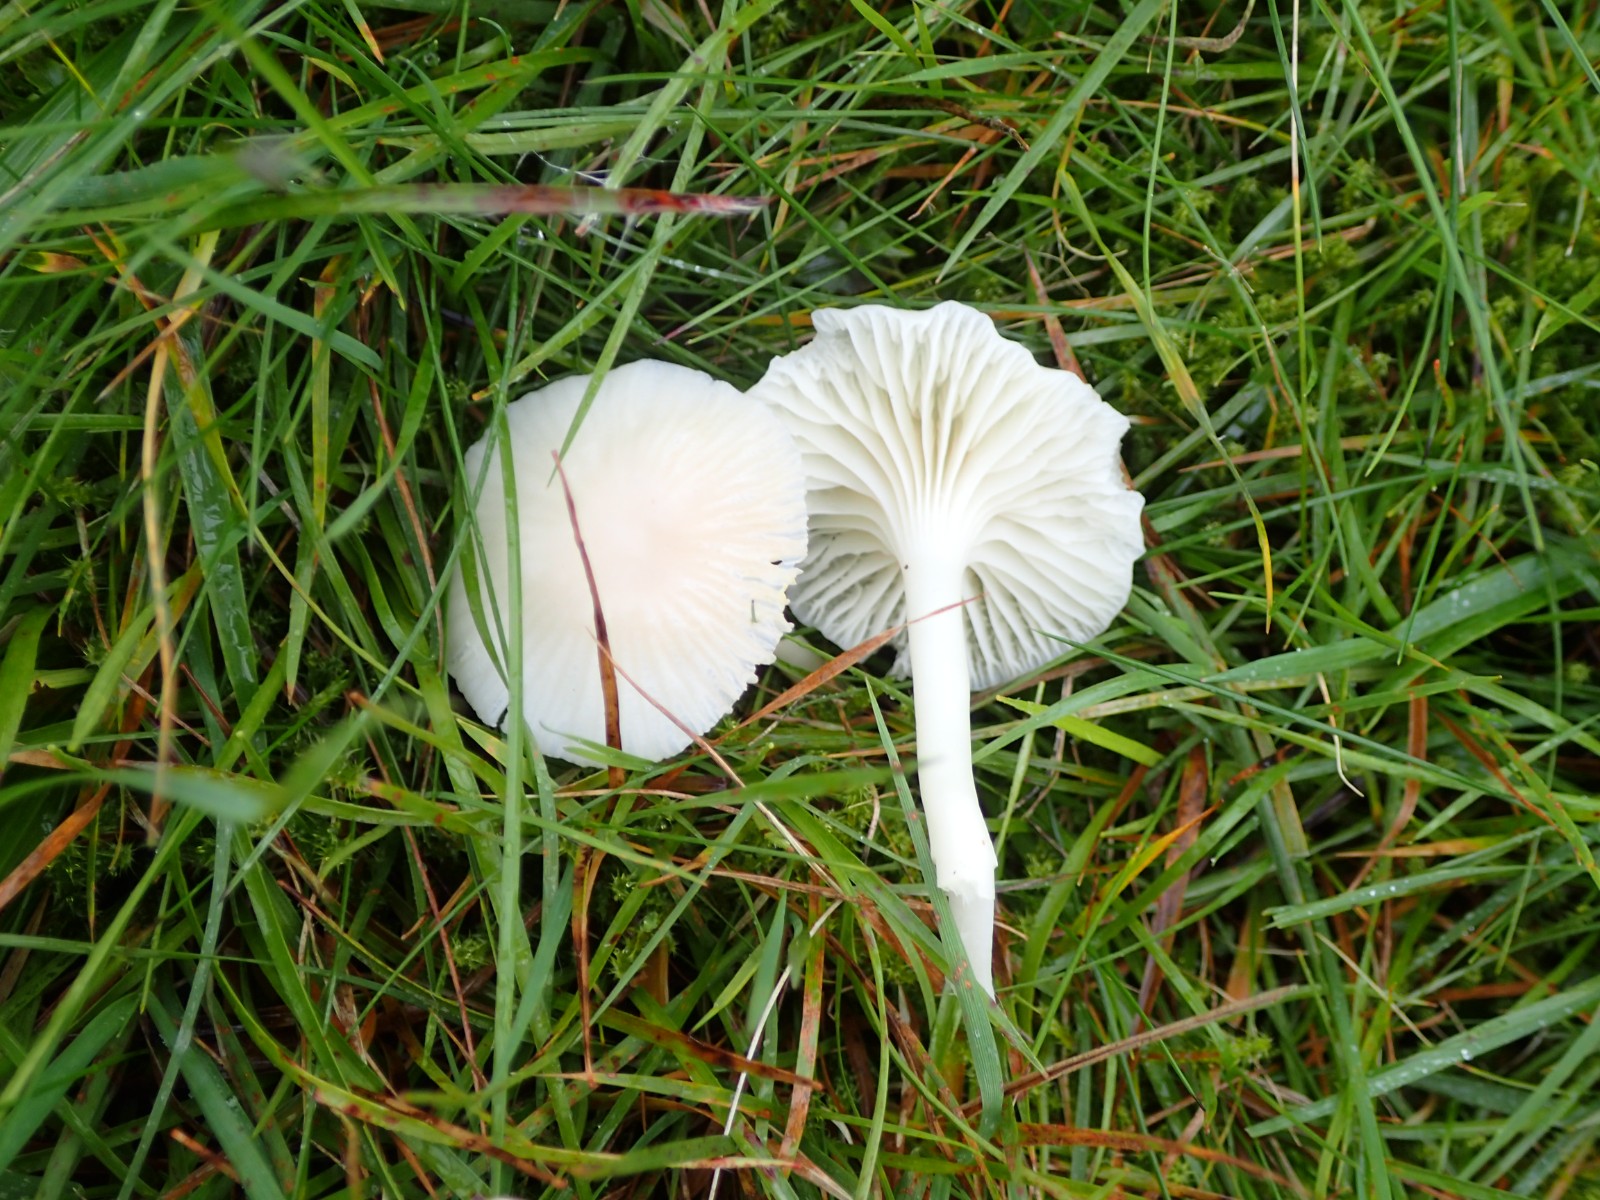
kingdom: Fungi
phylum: Basidiomycota
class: Agaricomycetes
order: Agaricales
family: Hygrophoraceae
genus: Cuphophyllus
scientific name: Cuphophyllus virgineus
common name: snehvid vokshat
